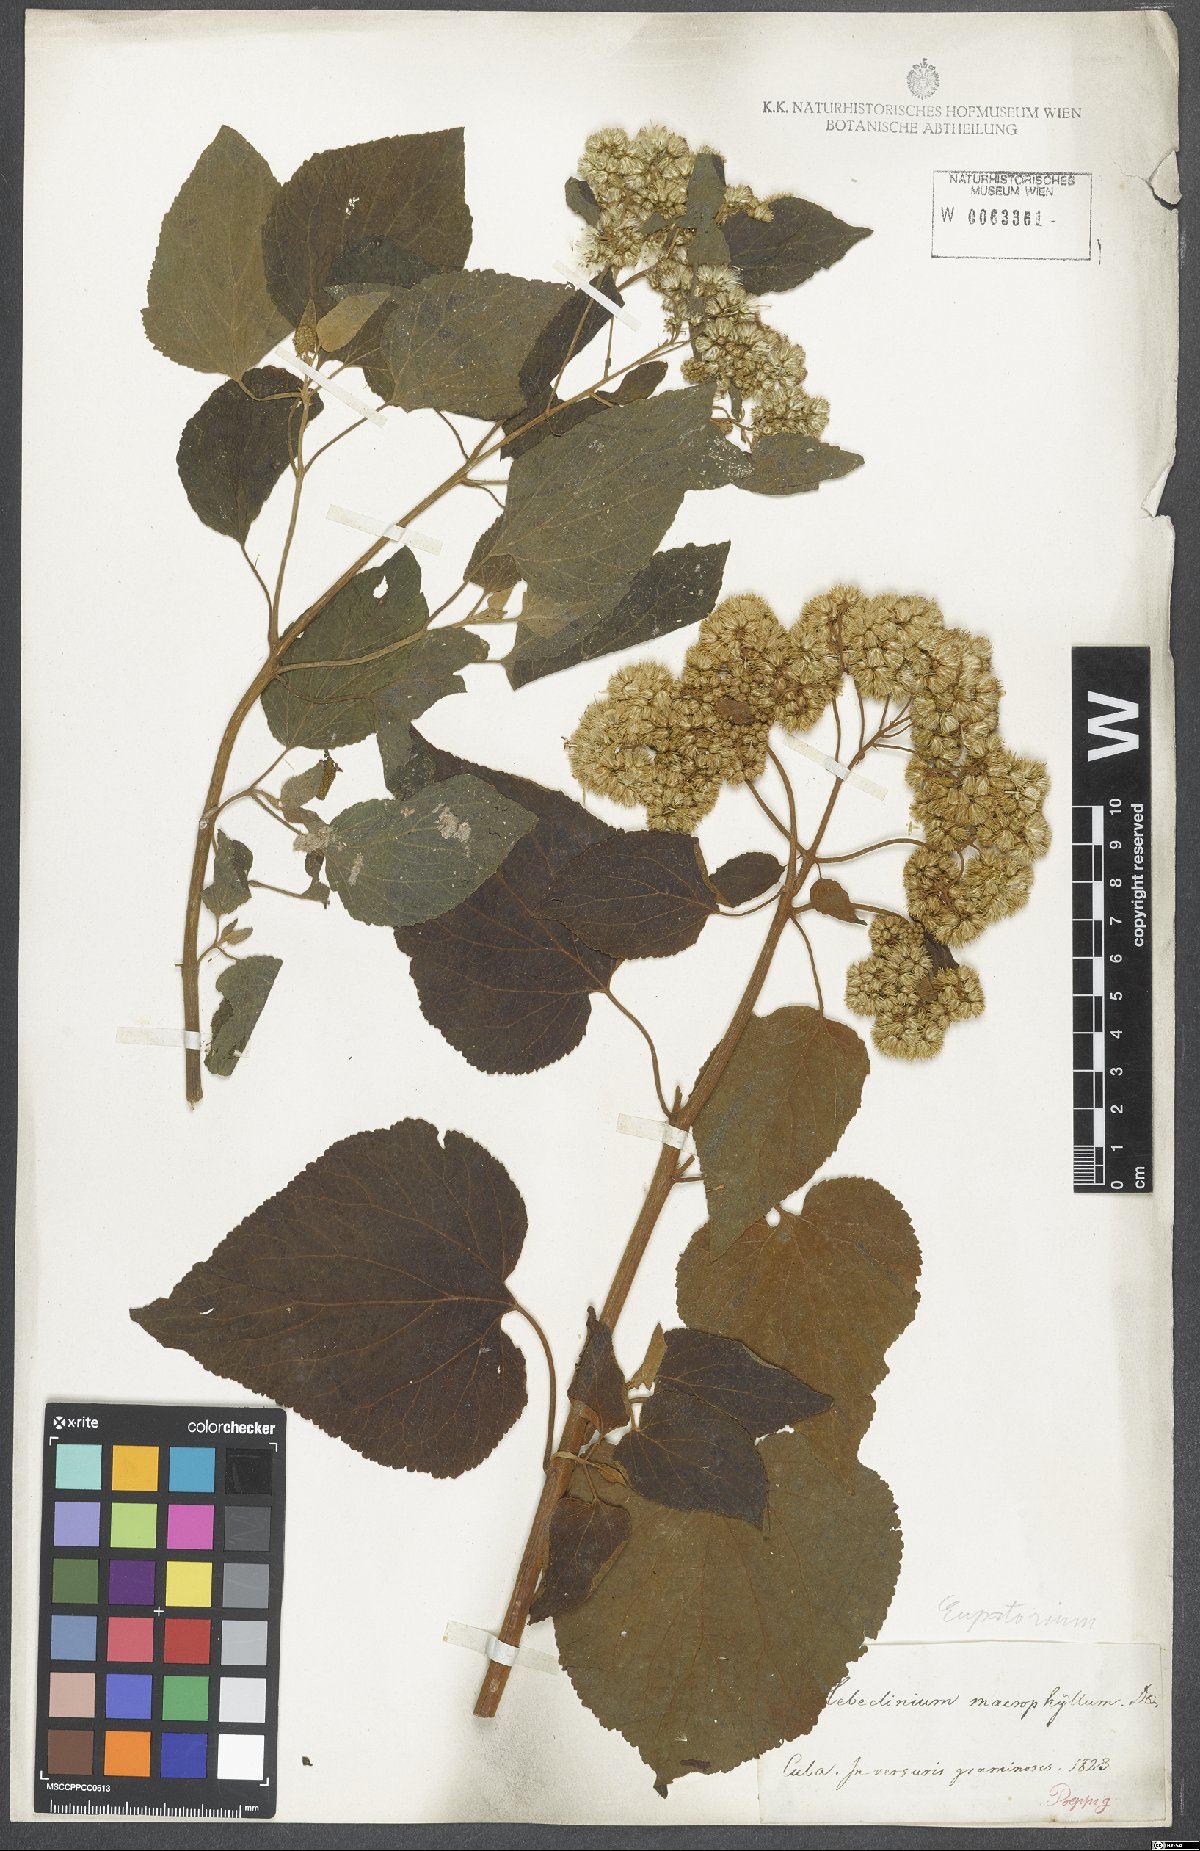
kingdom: Plantae
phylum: Tracheophyta
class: Magnoliopsida
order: Asterales
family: Asteraceae
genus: Hebeclinium
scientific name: Hebeclinium macrophyllum
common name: Largeleaf thoroughwort
